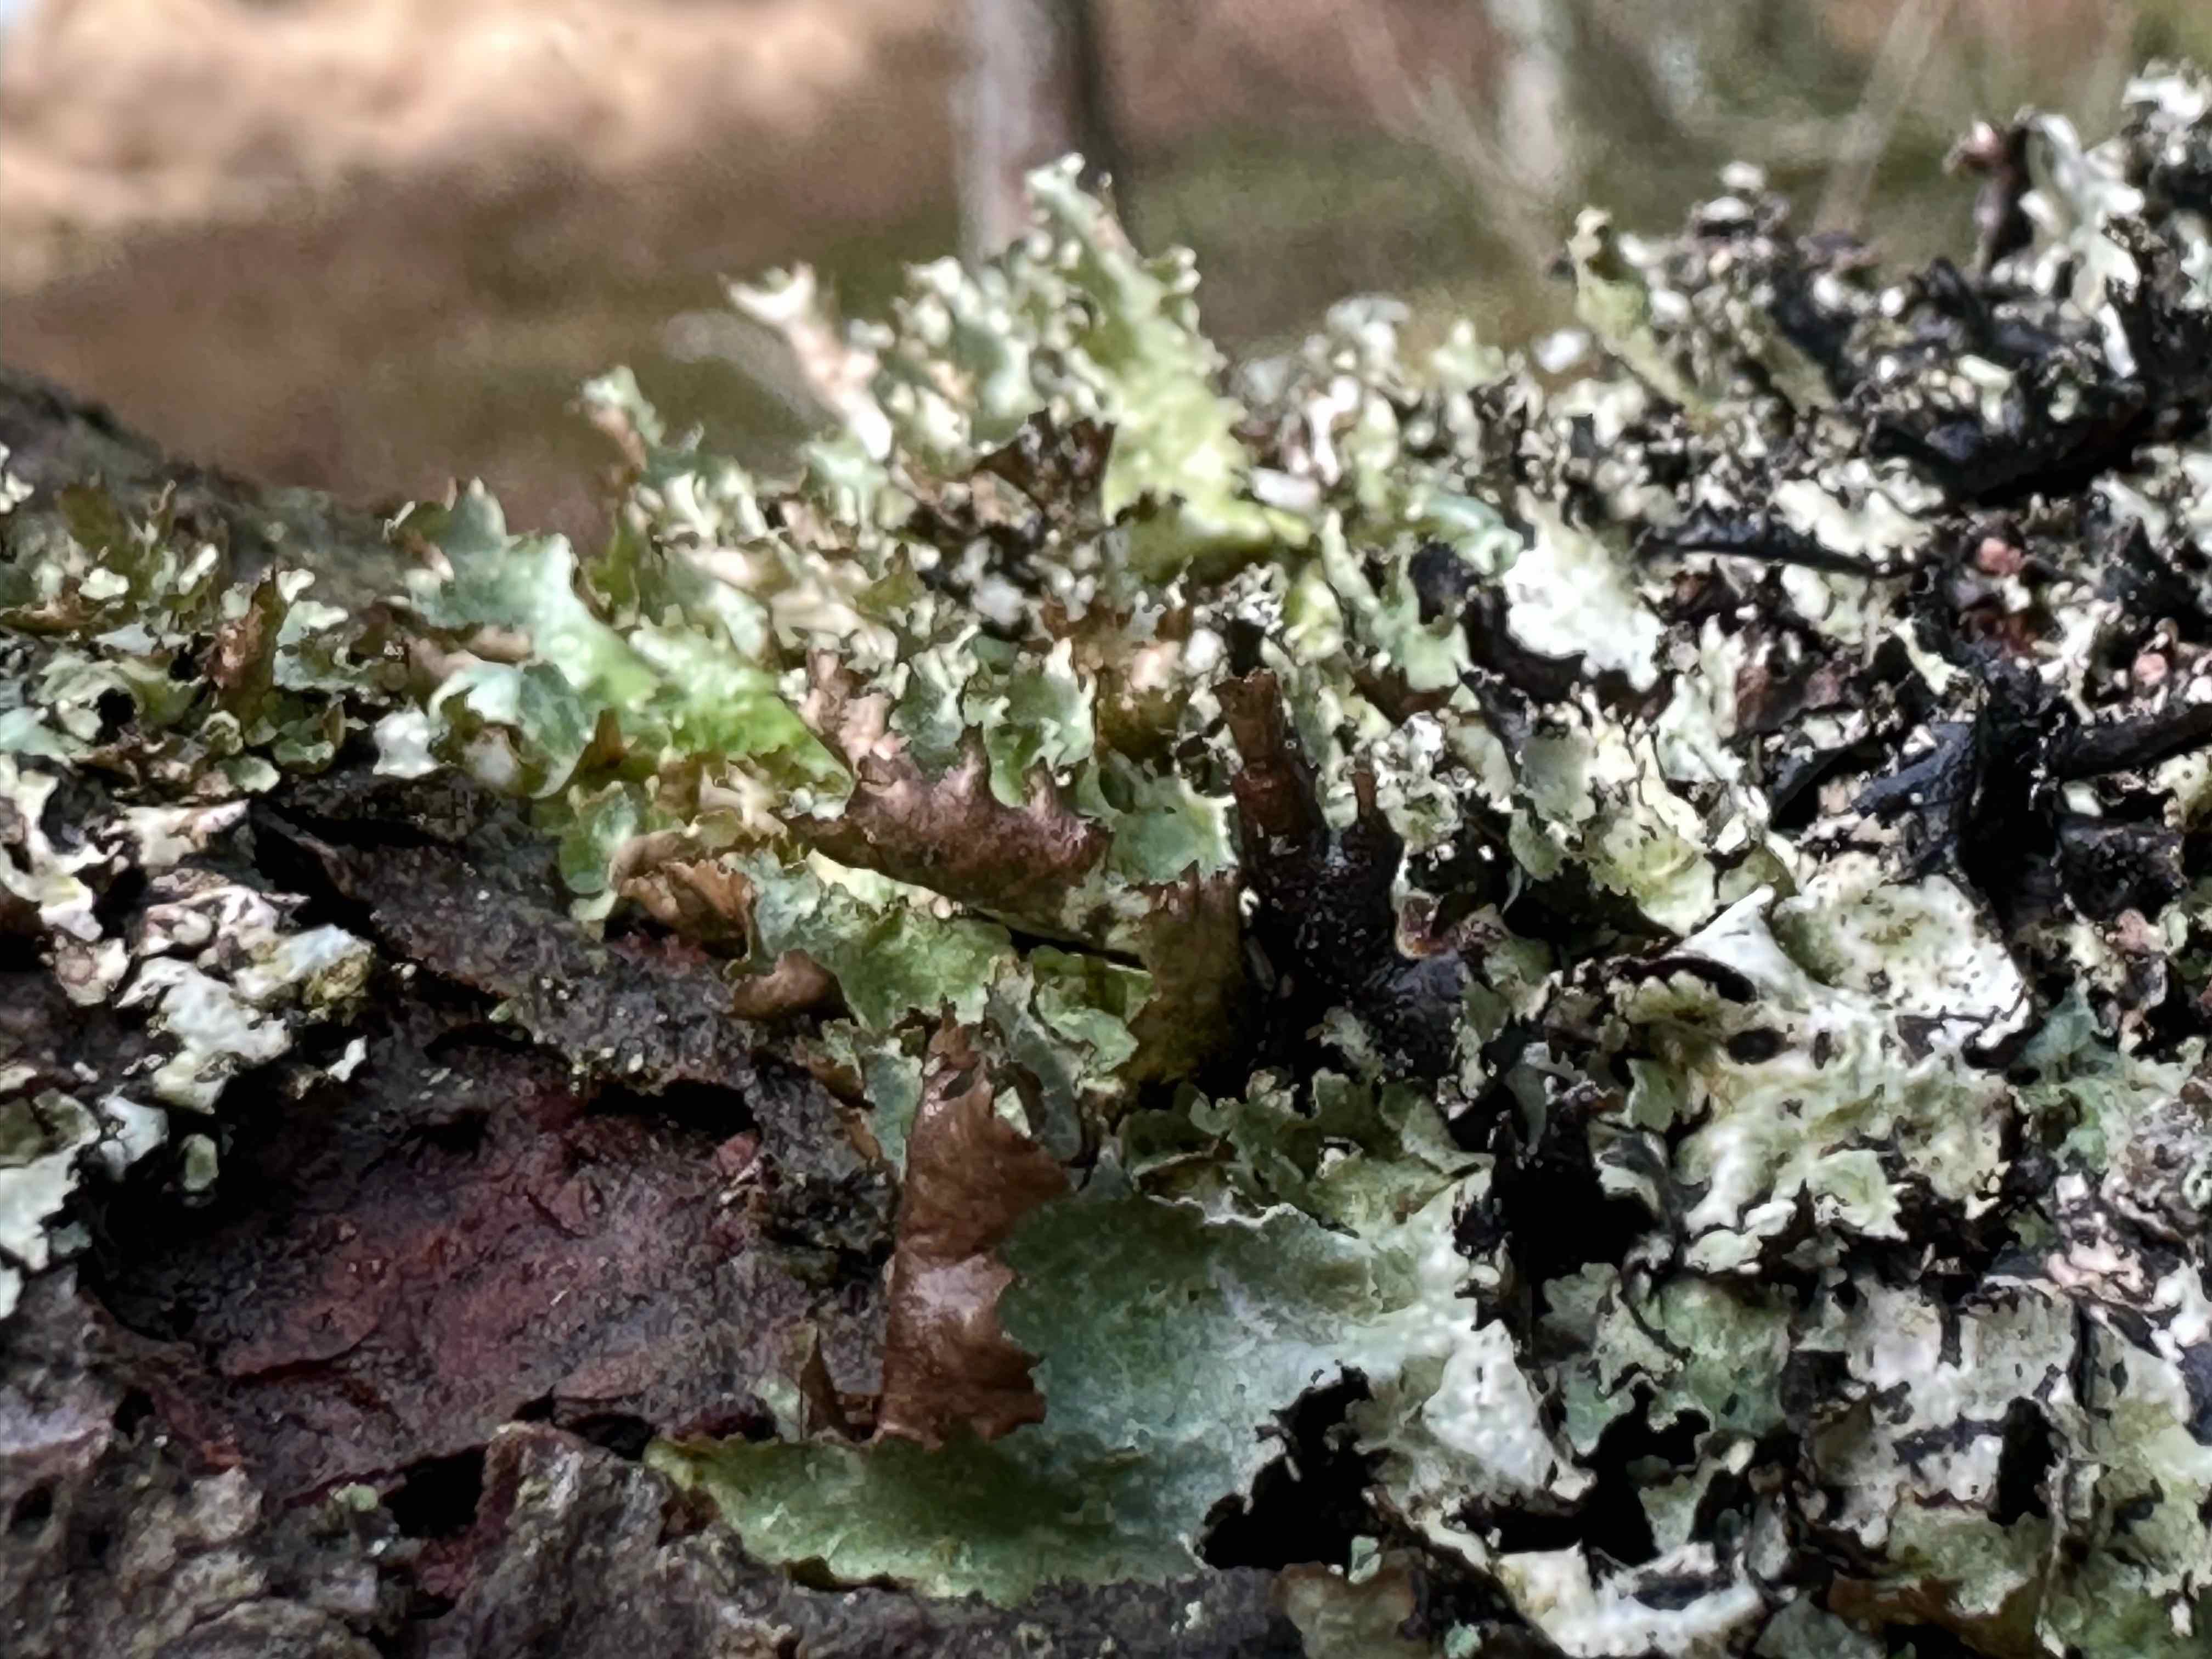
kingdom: Fungi
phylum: Ascomycota
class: Lecanoromycetes
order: Lecanorales
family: Parmeliaceae
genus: Platismatia
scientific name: Platismatia glauca
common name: blågrå papirlav
